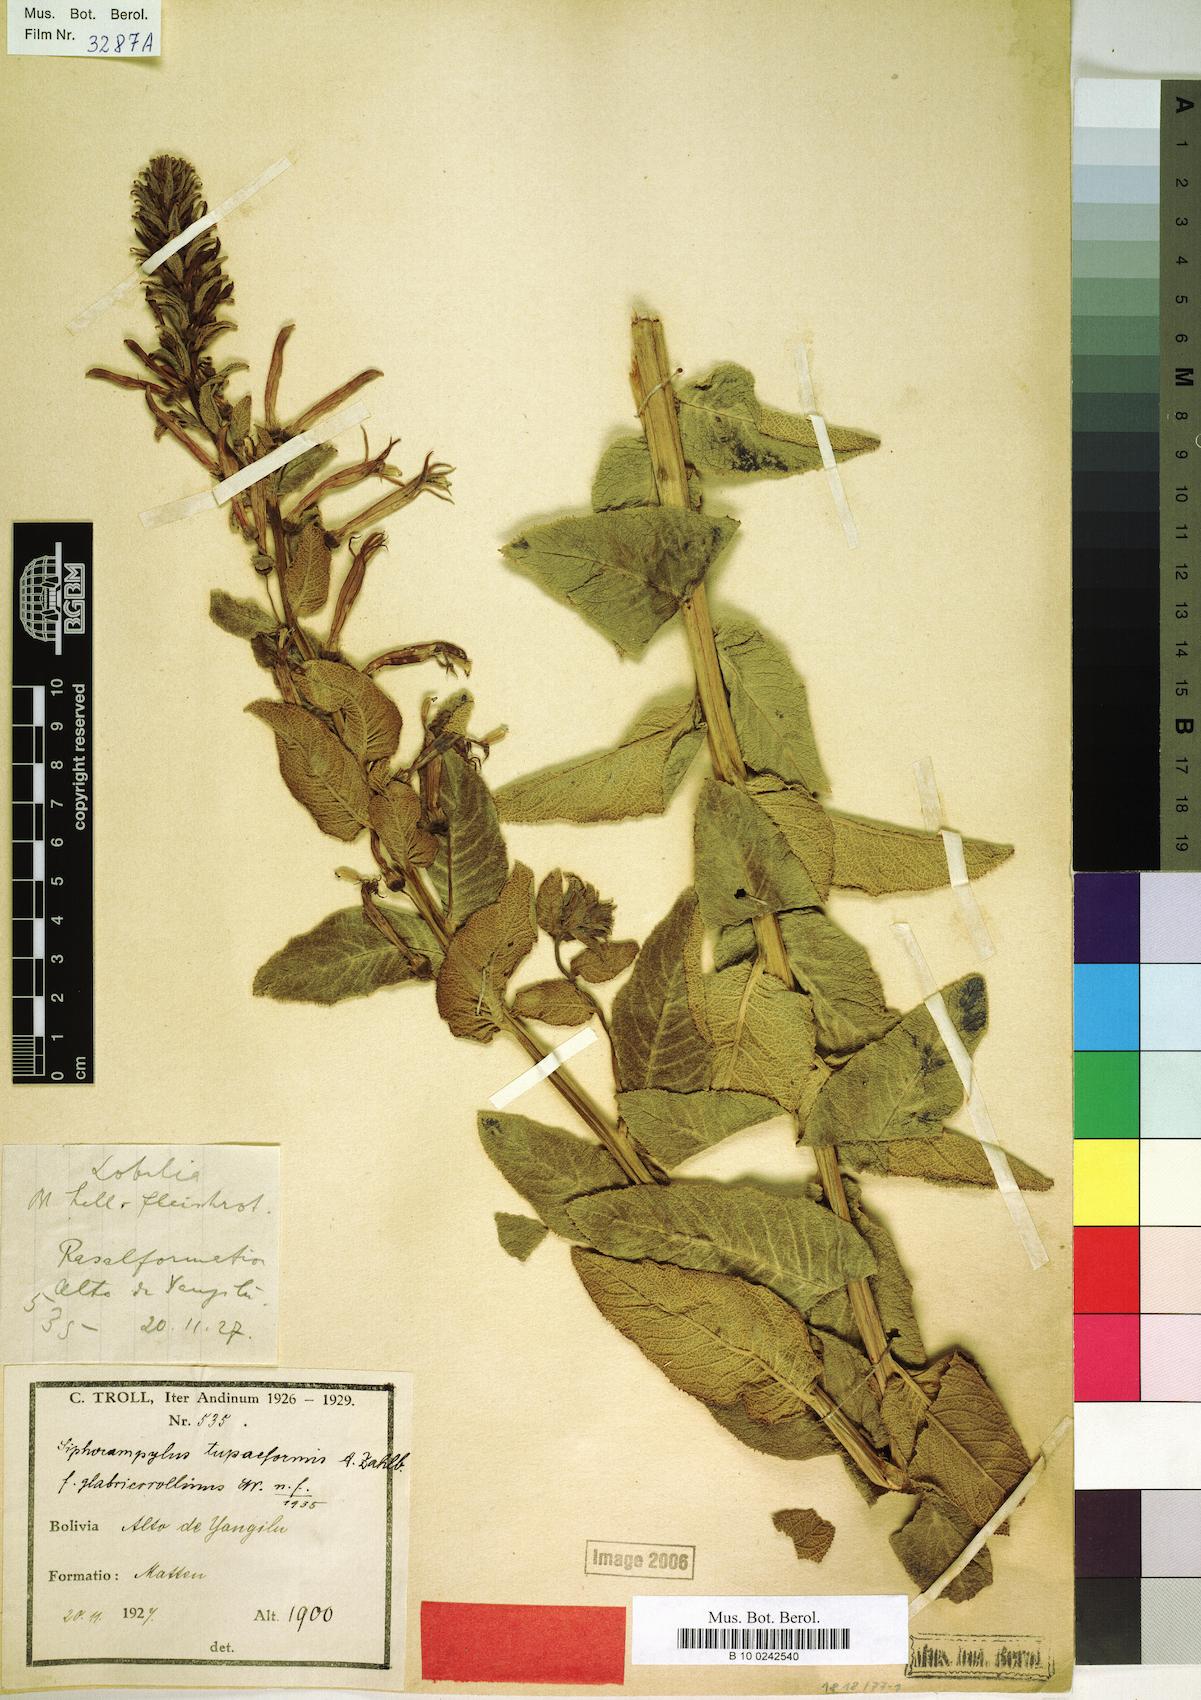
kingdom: Plantae
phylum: Tracheophyta
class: Magnoliopsida
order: Asterales
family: Campanulaceae
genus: Siphocampylus
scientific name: Siphocampylus tupaeformis
